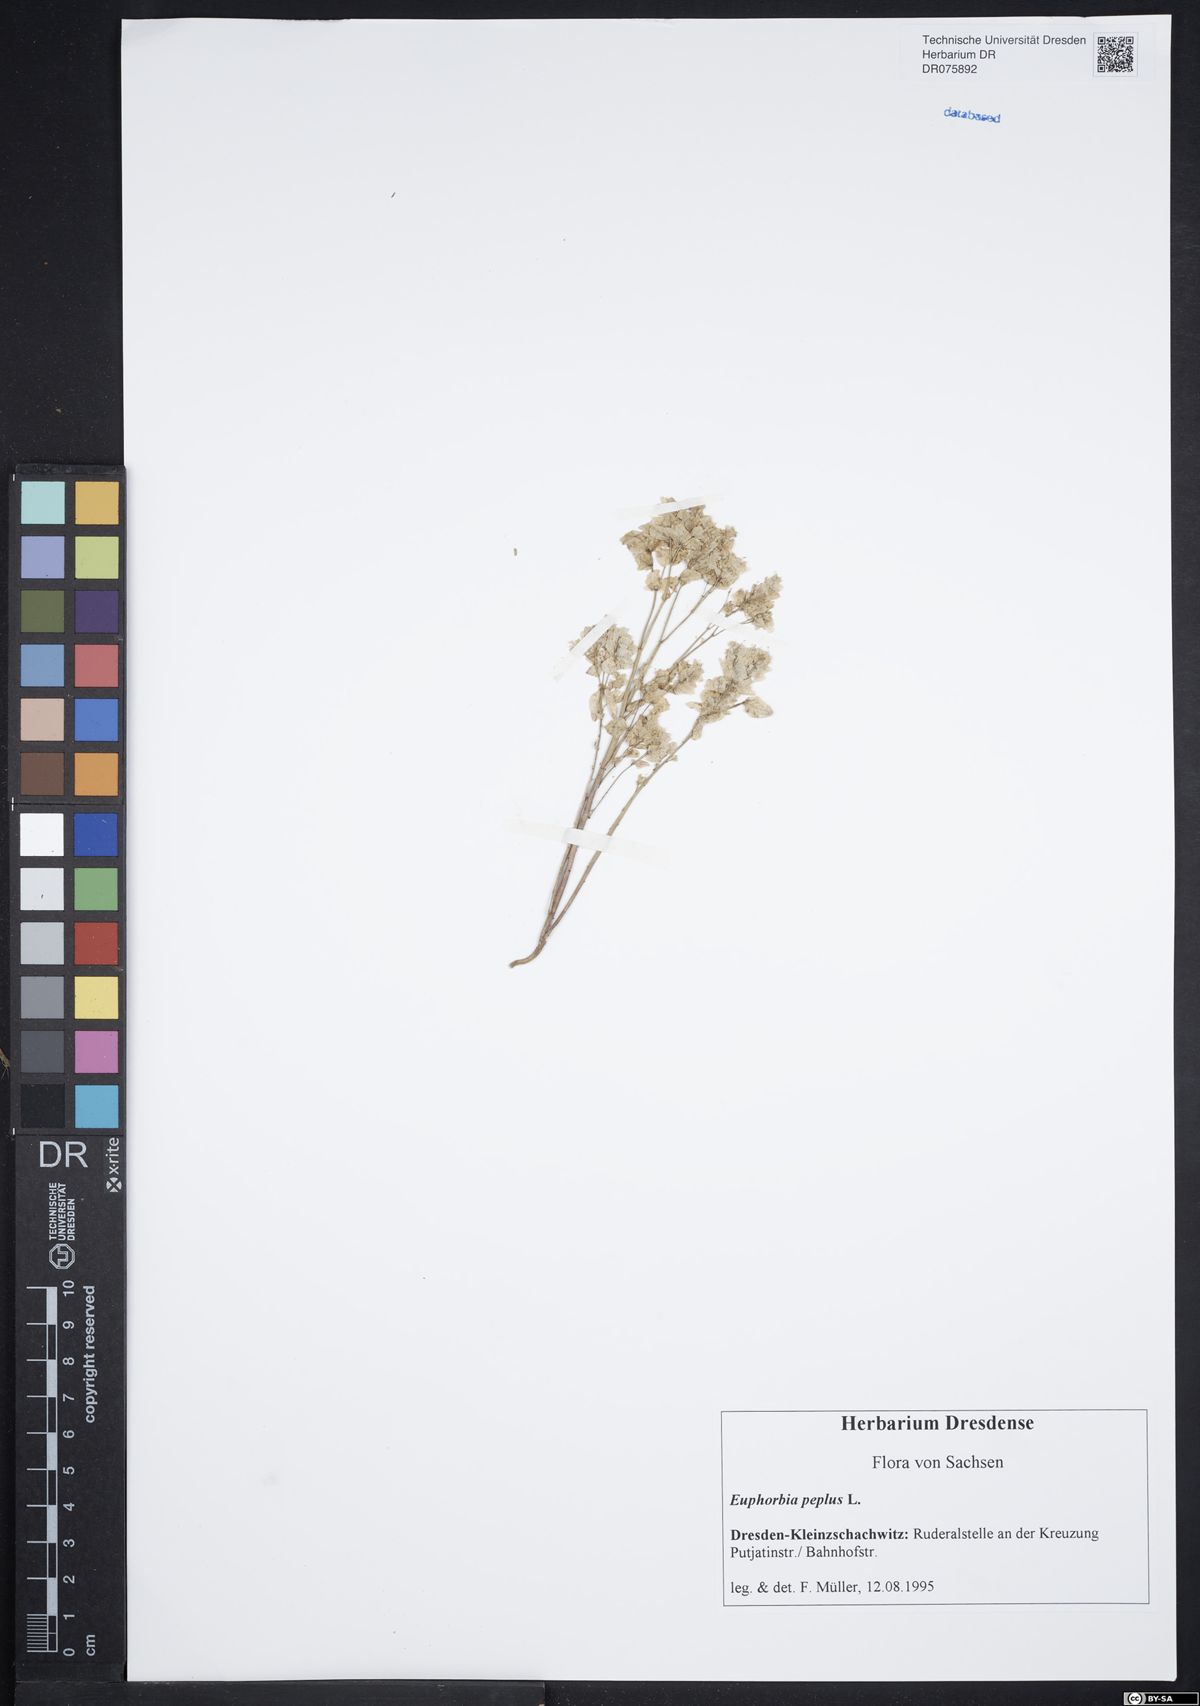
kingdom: Plantae
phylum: Tracheophyta
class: Magnoliopsida
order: Malpighiales
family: Euphorbiaceae
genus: Euphorbia
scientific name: Euphorbia peplus
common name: Petty spurge
